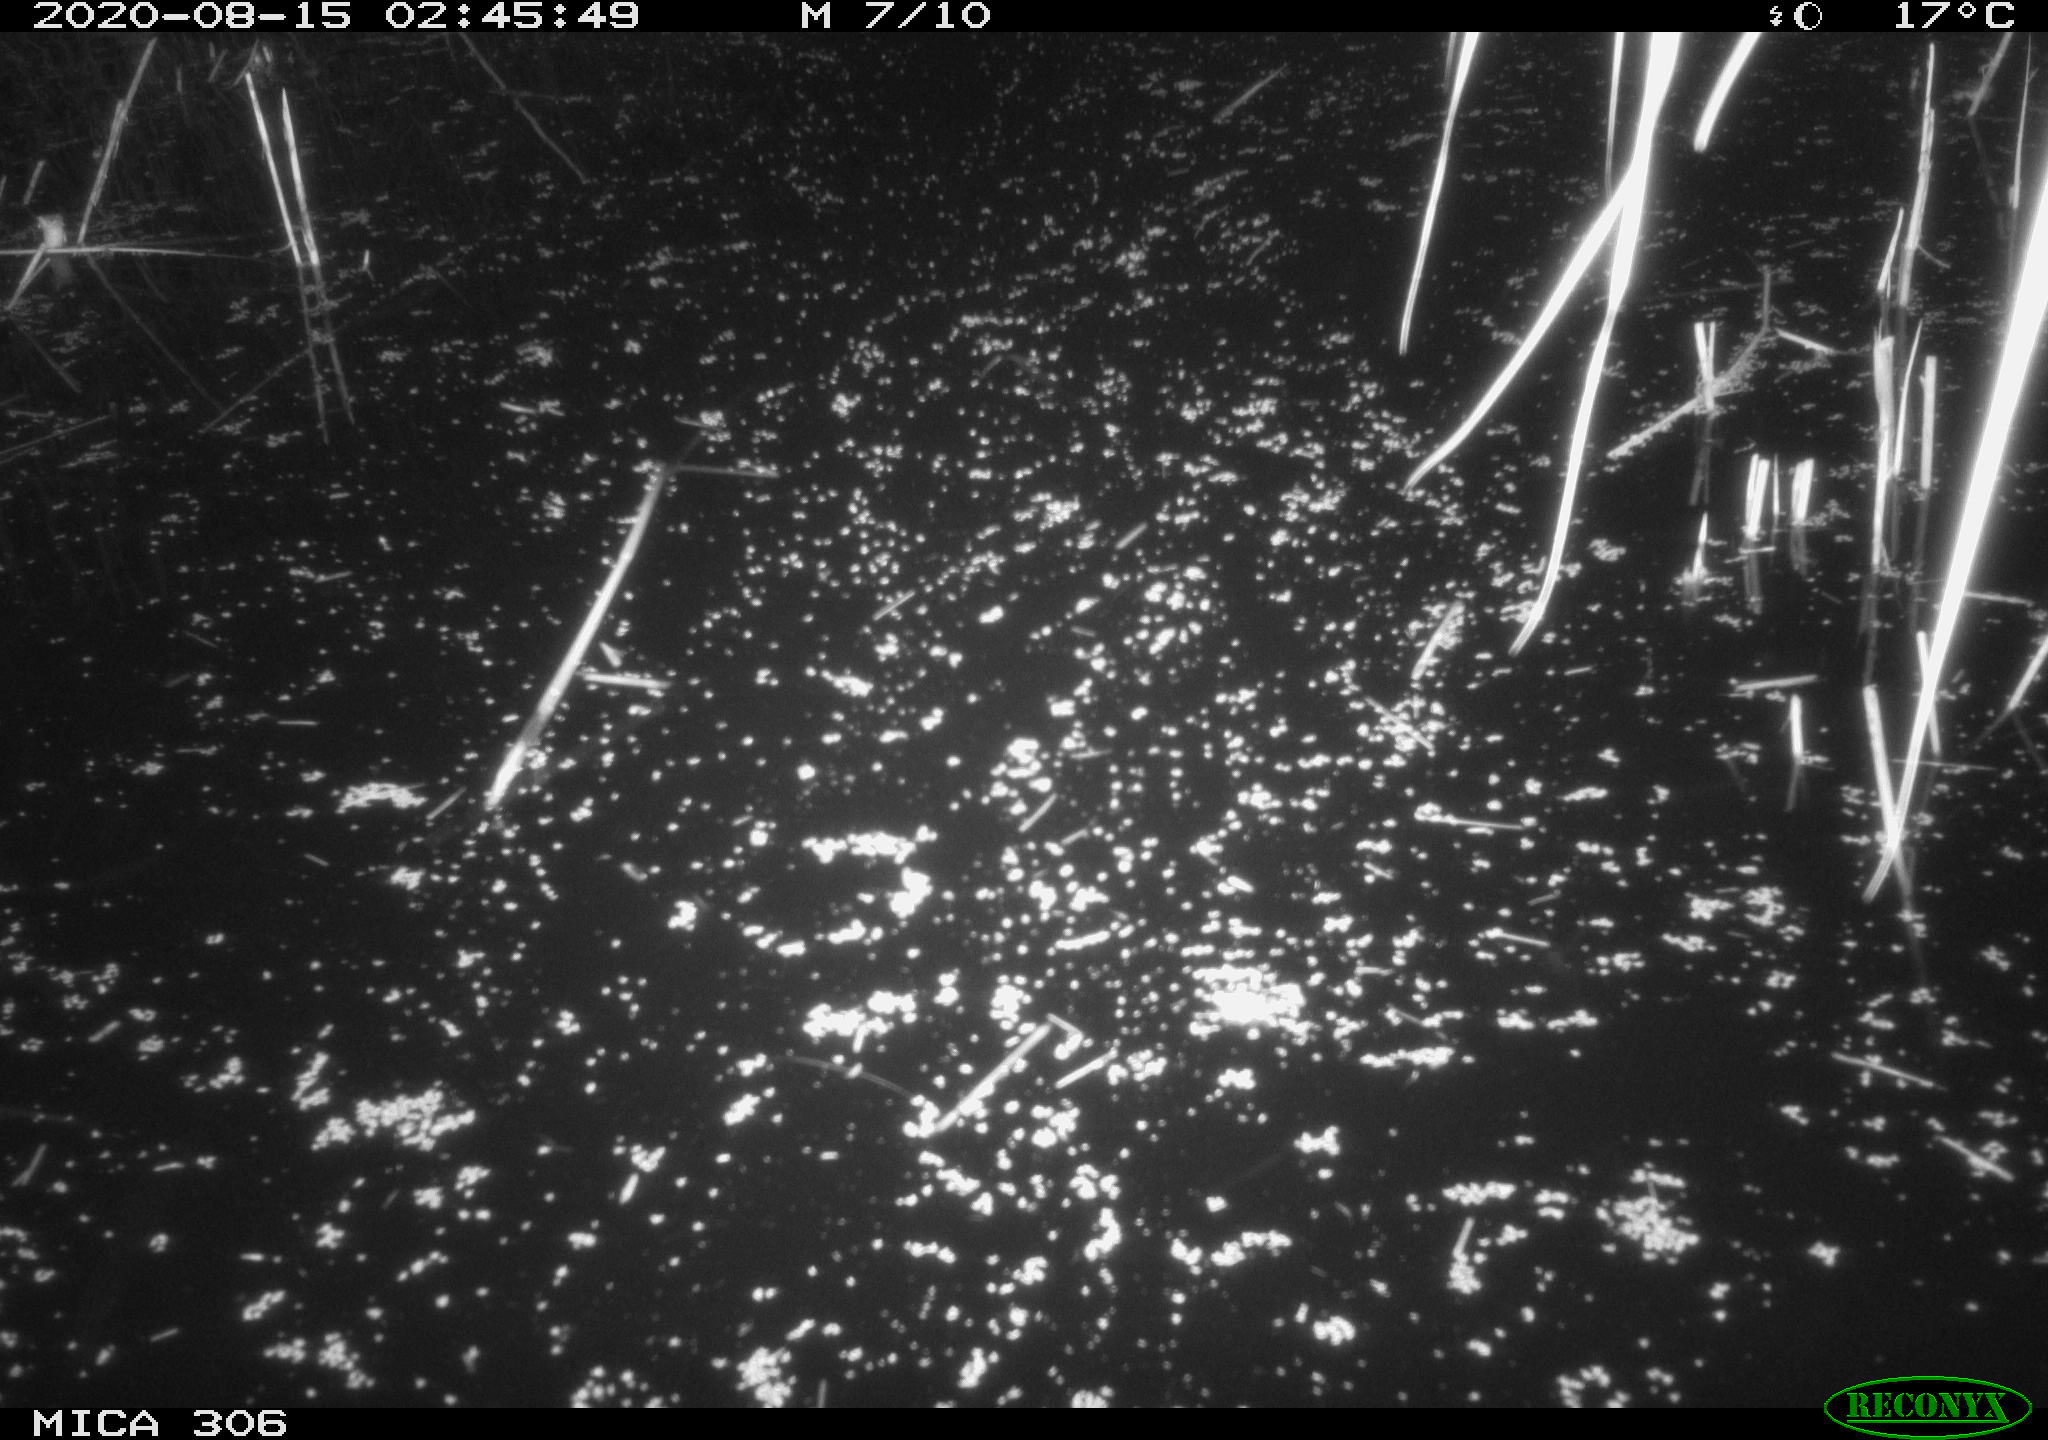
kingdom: Animalia
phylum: Chordata
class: Mammalia
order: Rodentia
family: Muridae
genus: Rattus
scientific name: Rattus norvegicus
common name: Brown rat
